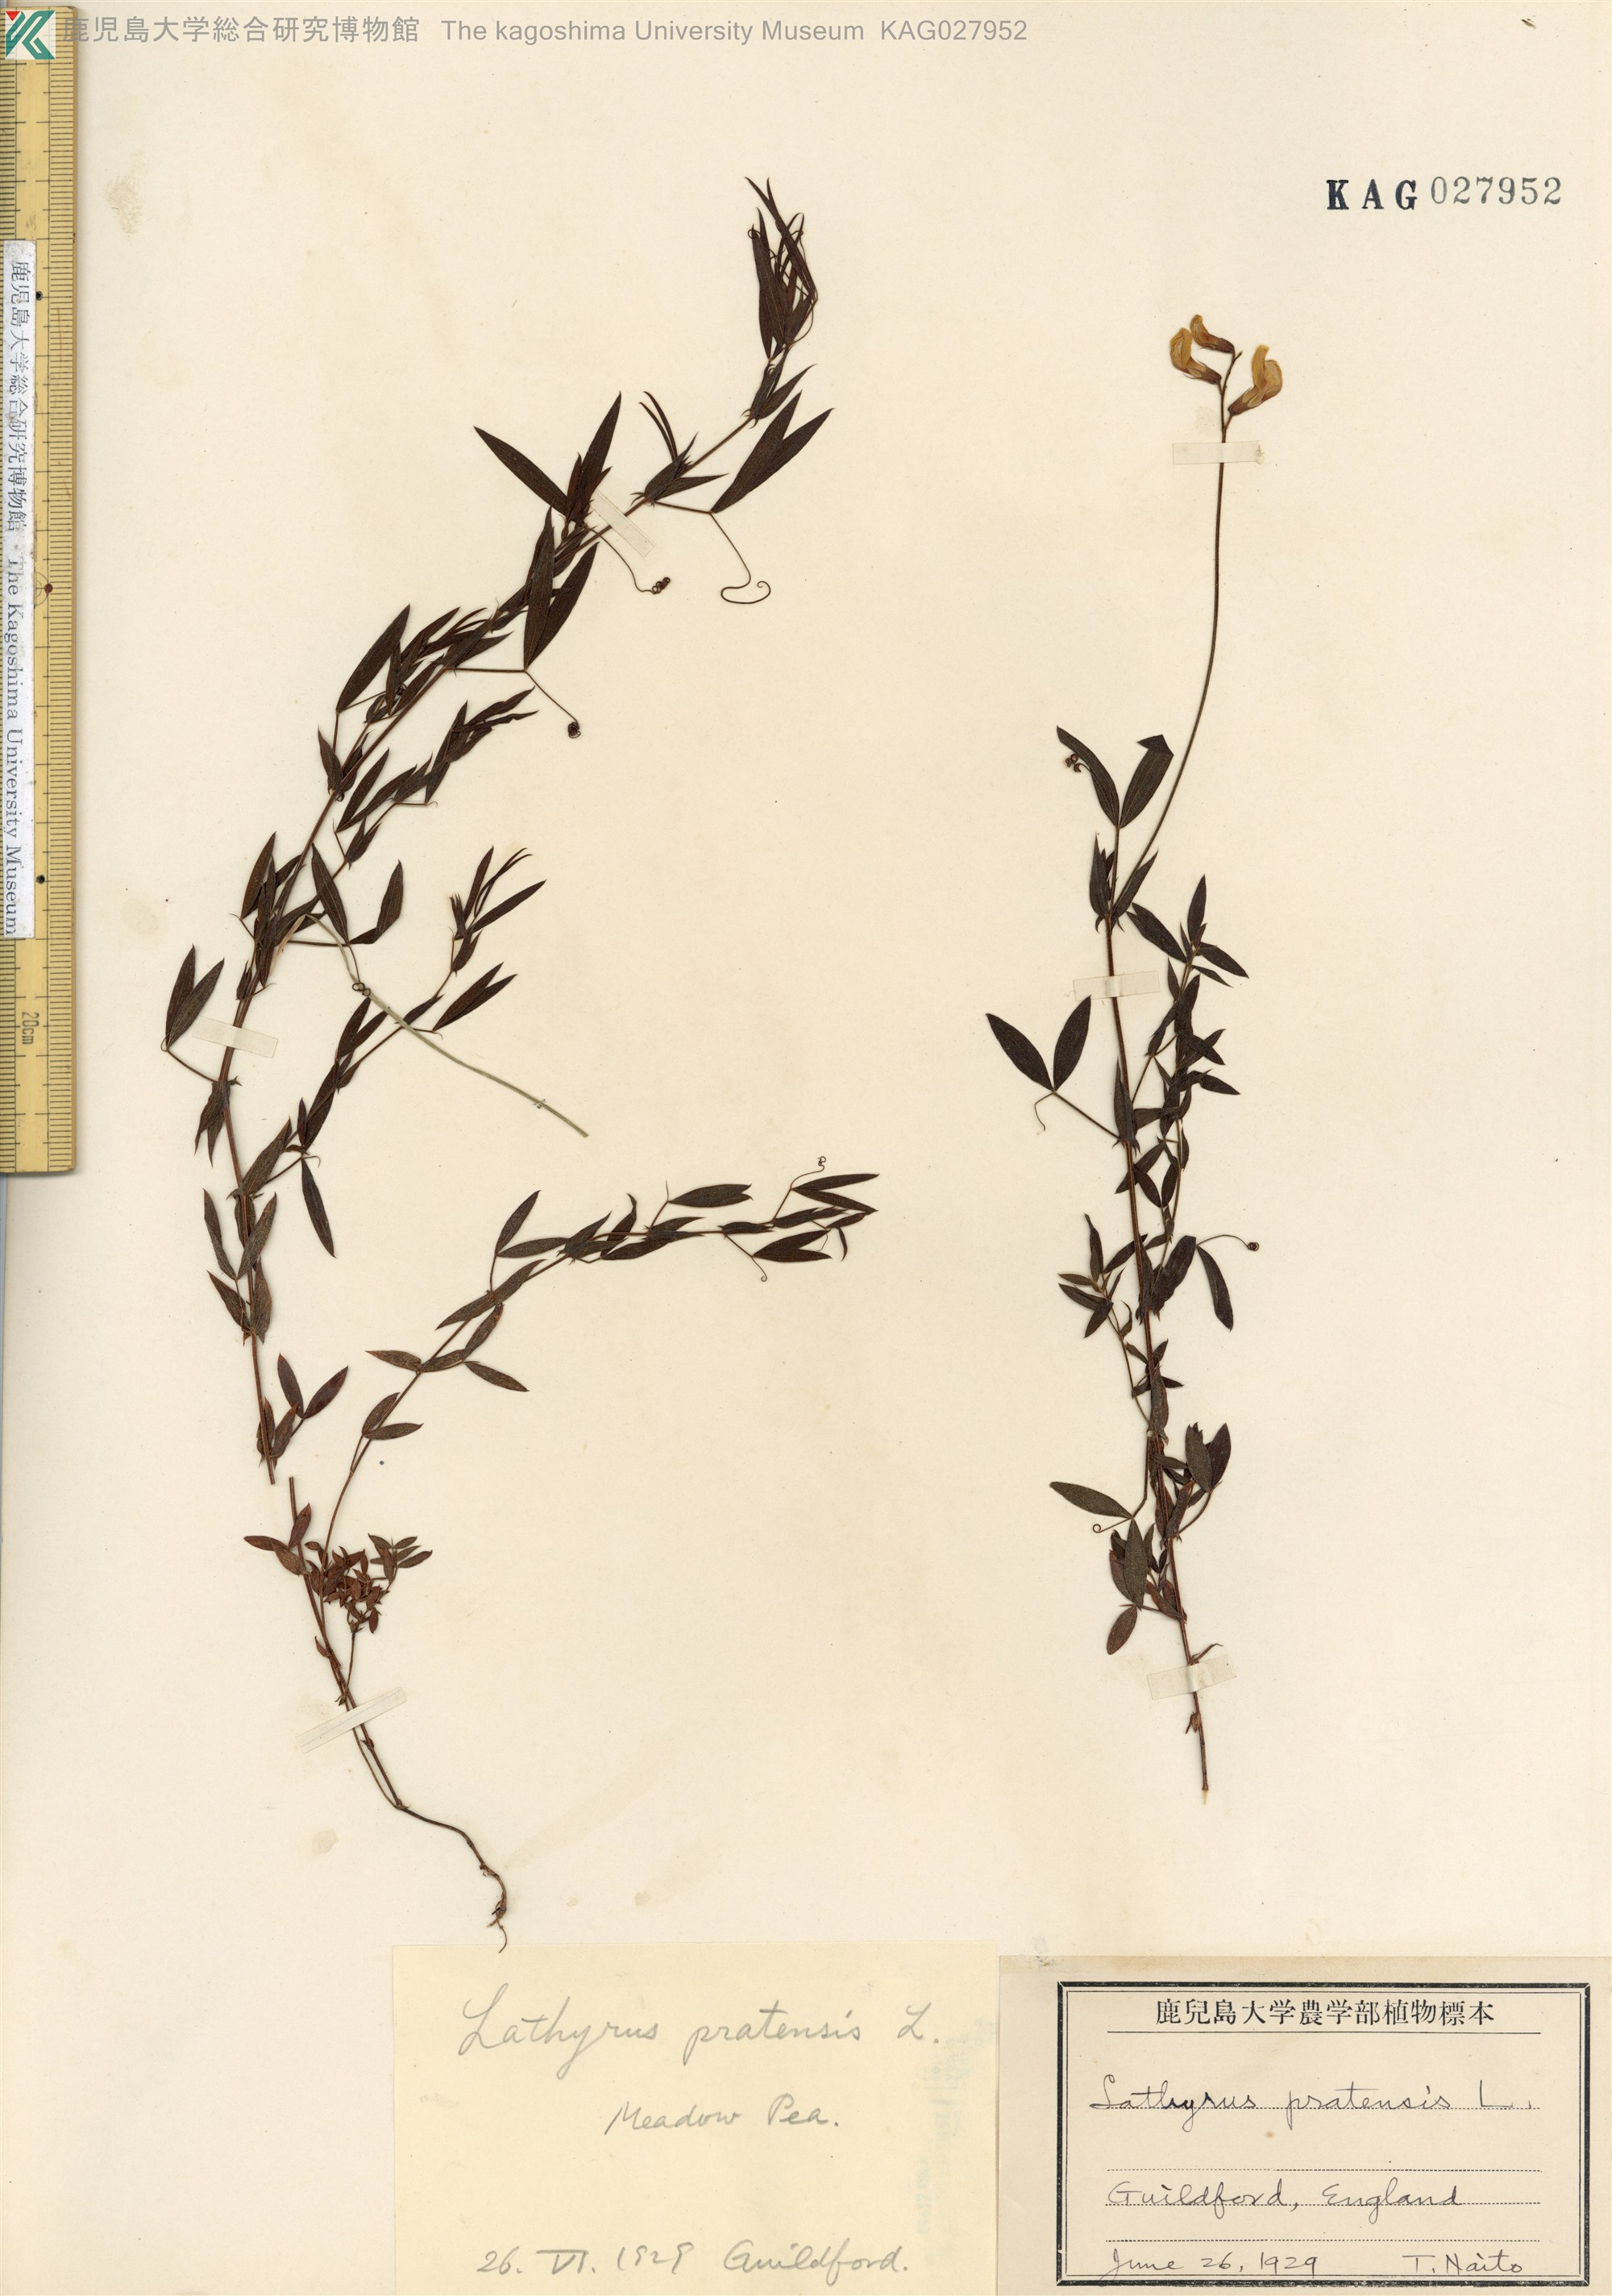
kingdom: Plantae
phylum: Tracheophyta
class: Magnoliopsida
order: Fabales
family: Fabaceae
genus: Lathyrus
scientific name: Lathyrus pratensis
